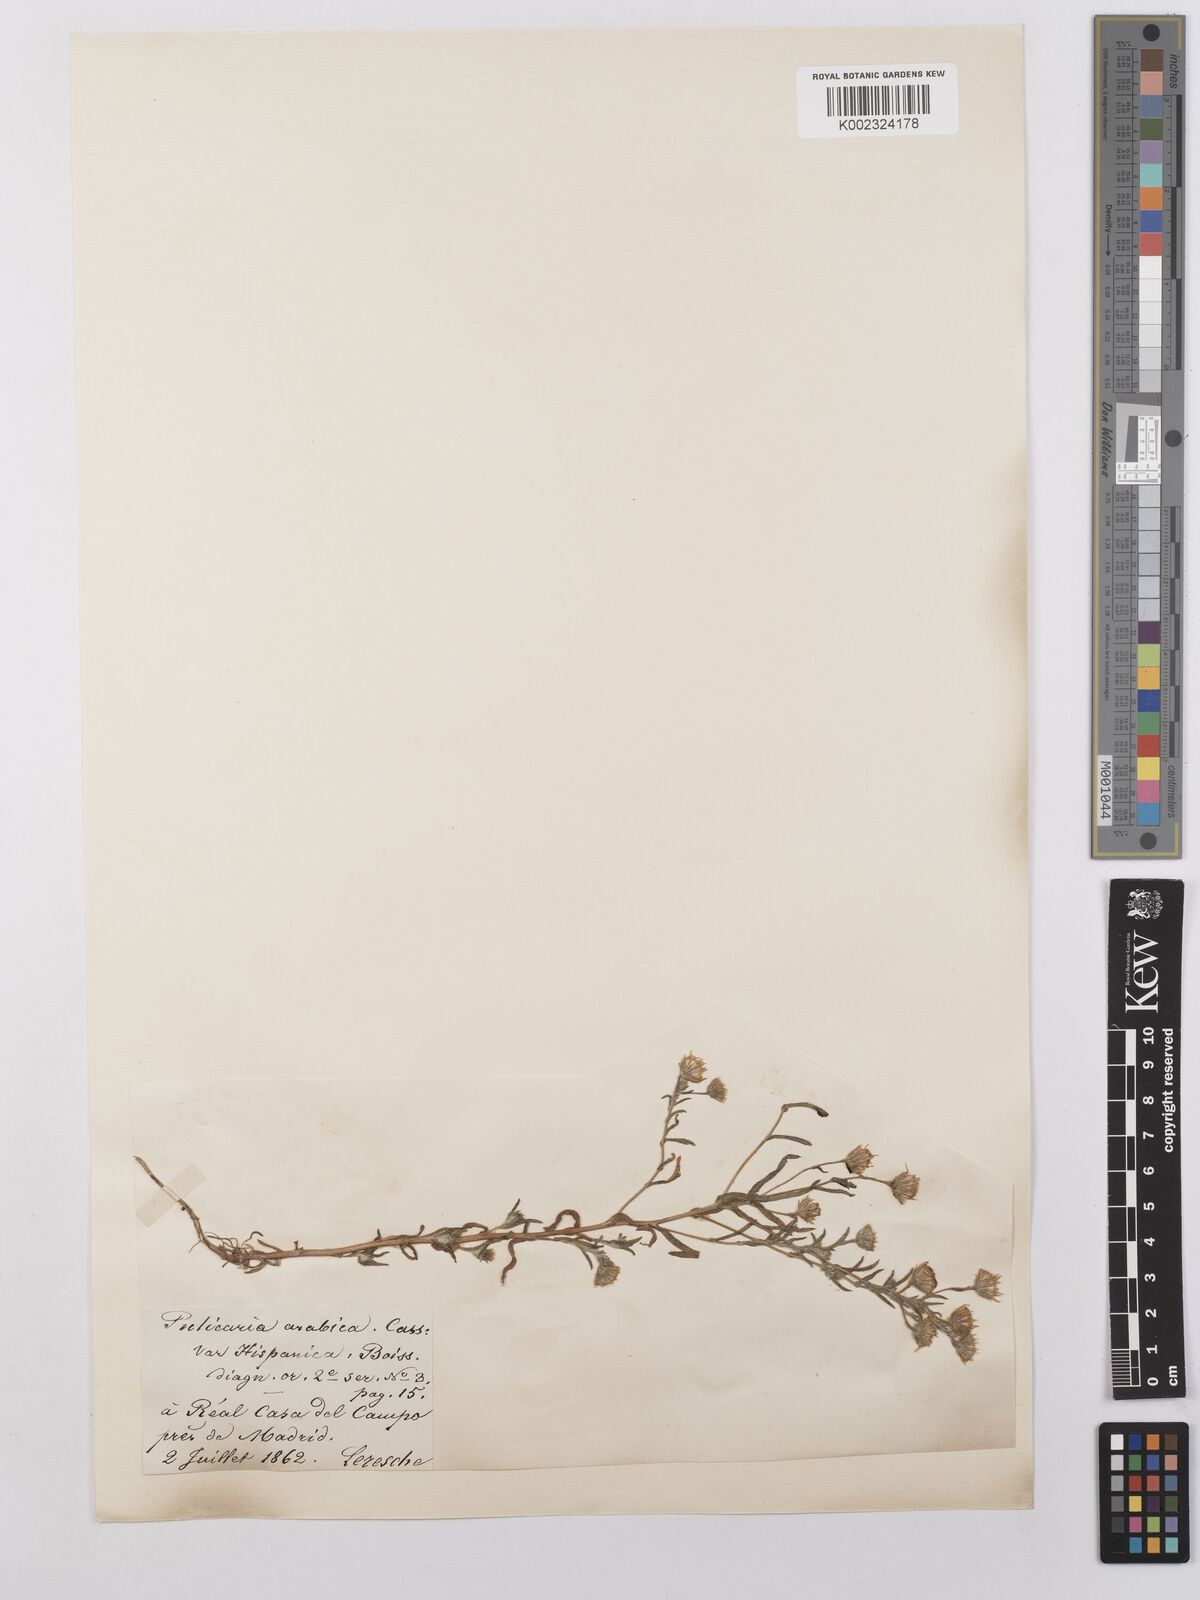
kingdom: Plantae
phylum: Tracheophyta
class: Magnoliopsida
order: Asterales
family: Asteraceae
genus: Pulicaria
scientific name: Pulicaria arabica
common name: Ladies' false fleabane
